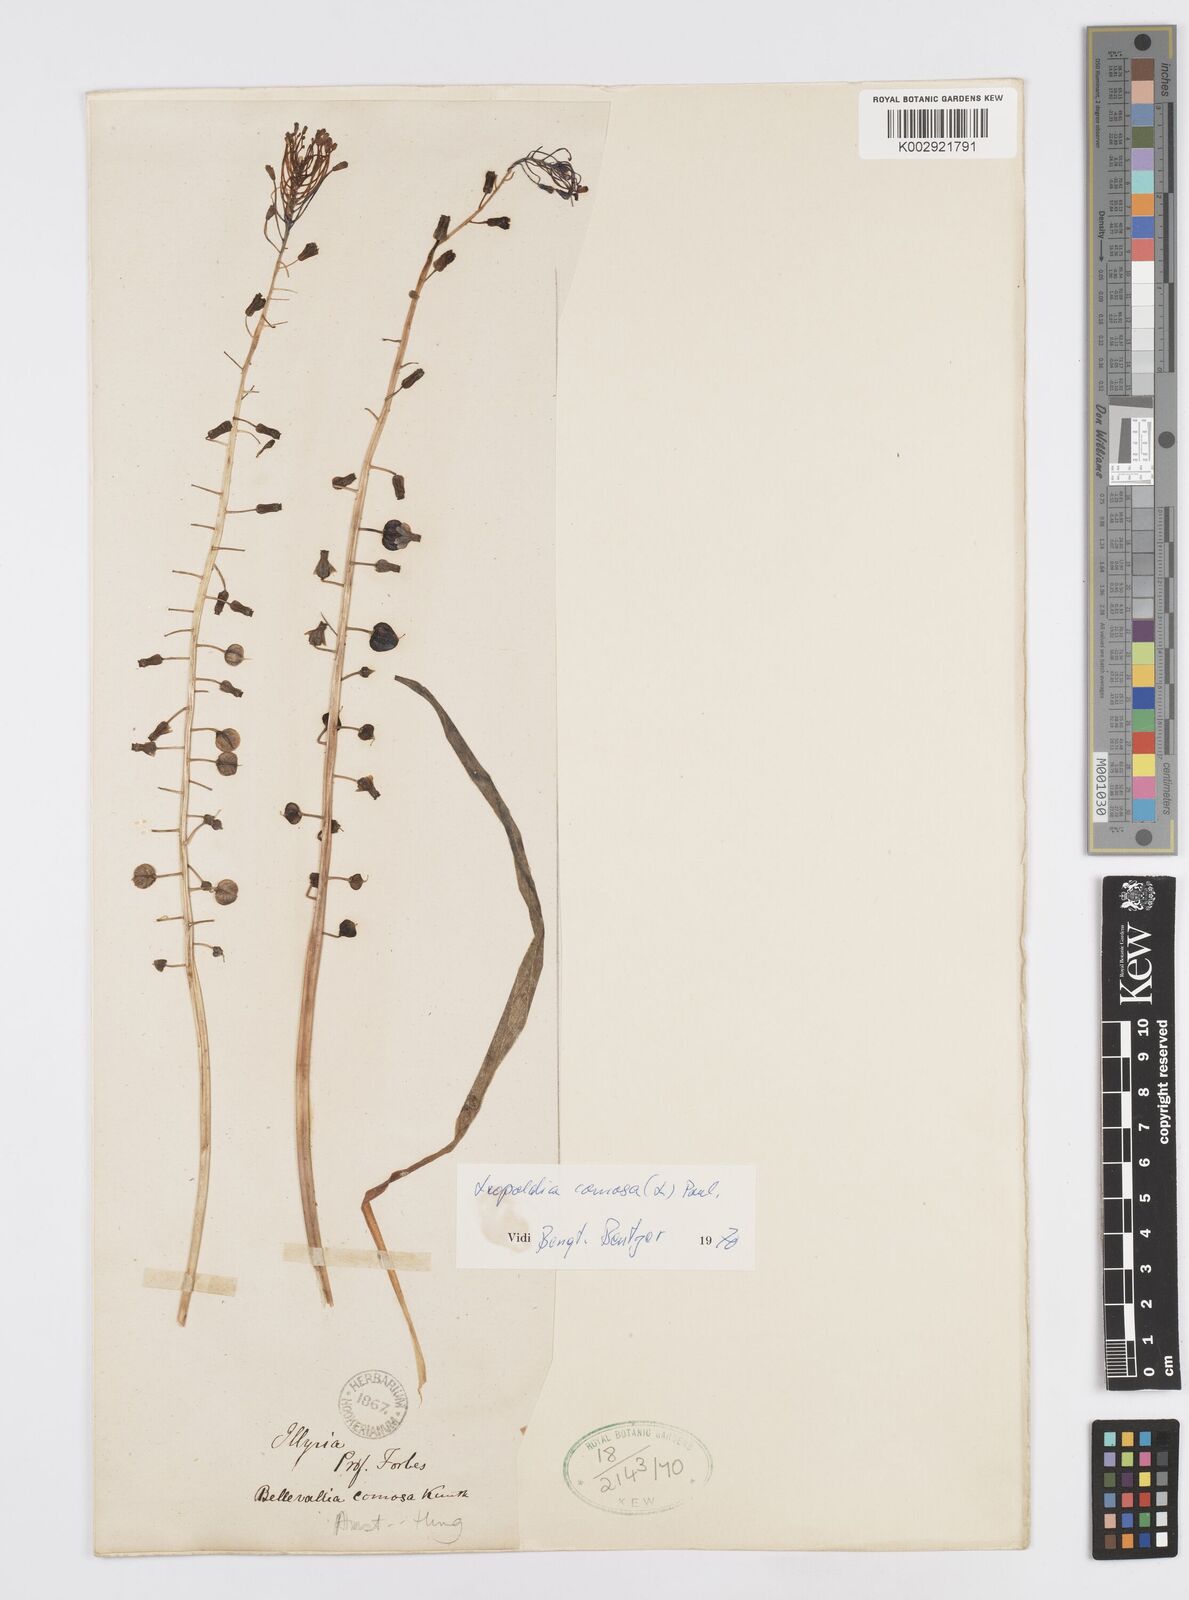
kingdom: Plantae
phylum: Tracheophyta
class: Liliopsida
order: Asparagales
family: Asparagaceae
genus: Muscari
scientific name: Muscari comosum
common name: Tassel hyacinth
